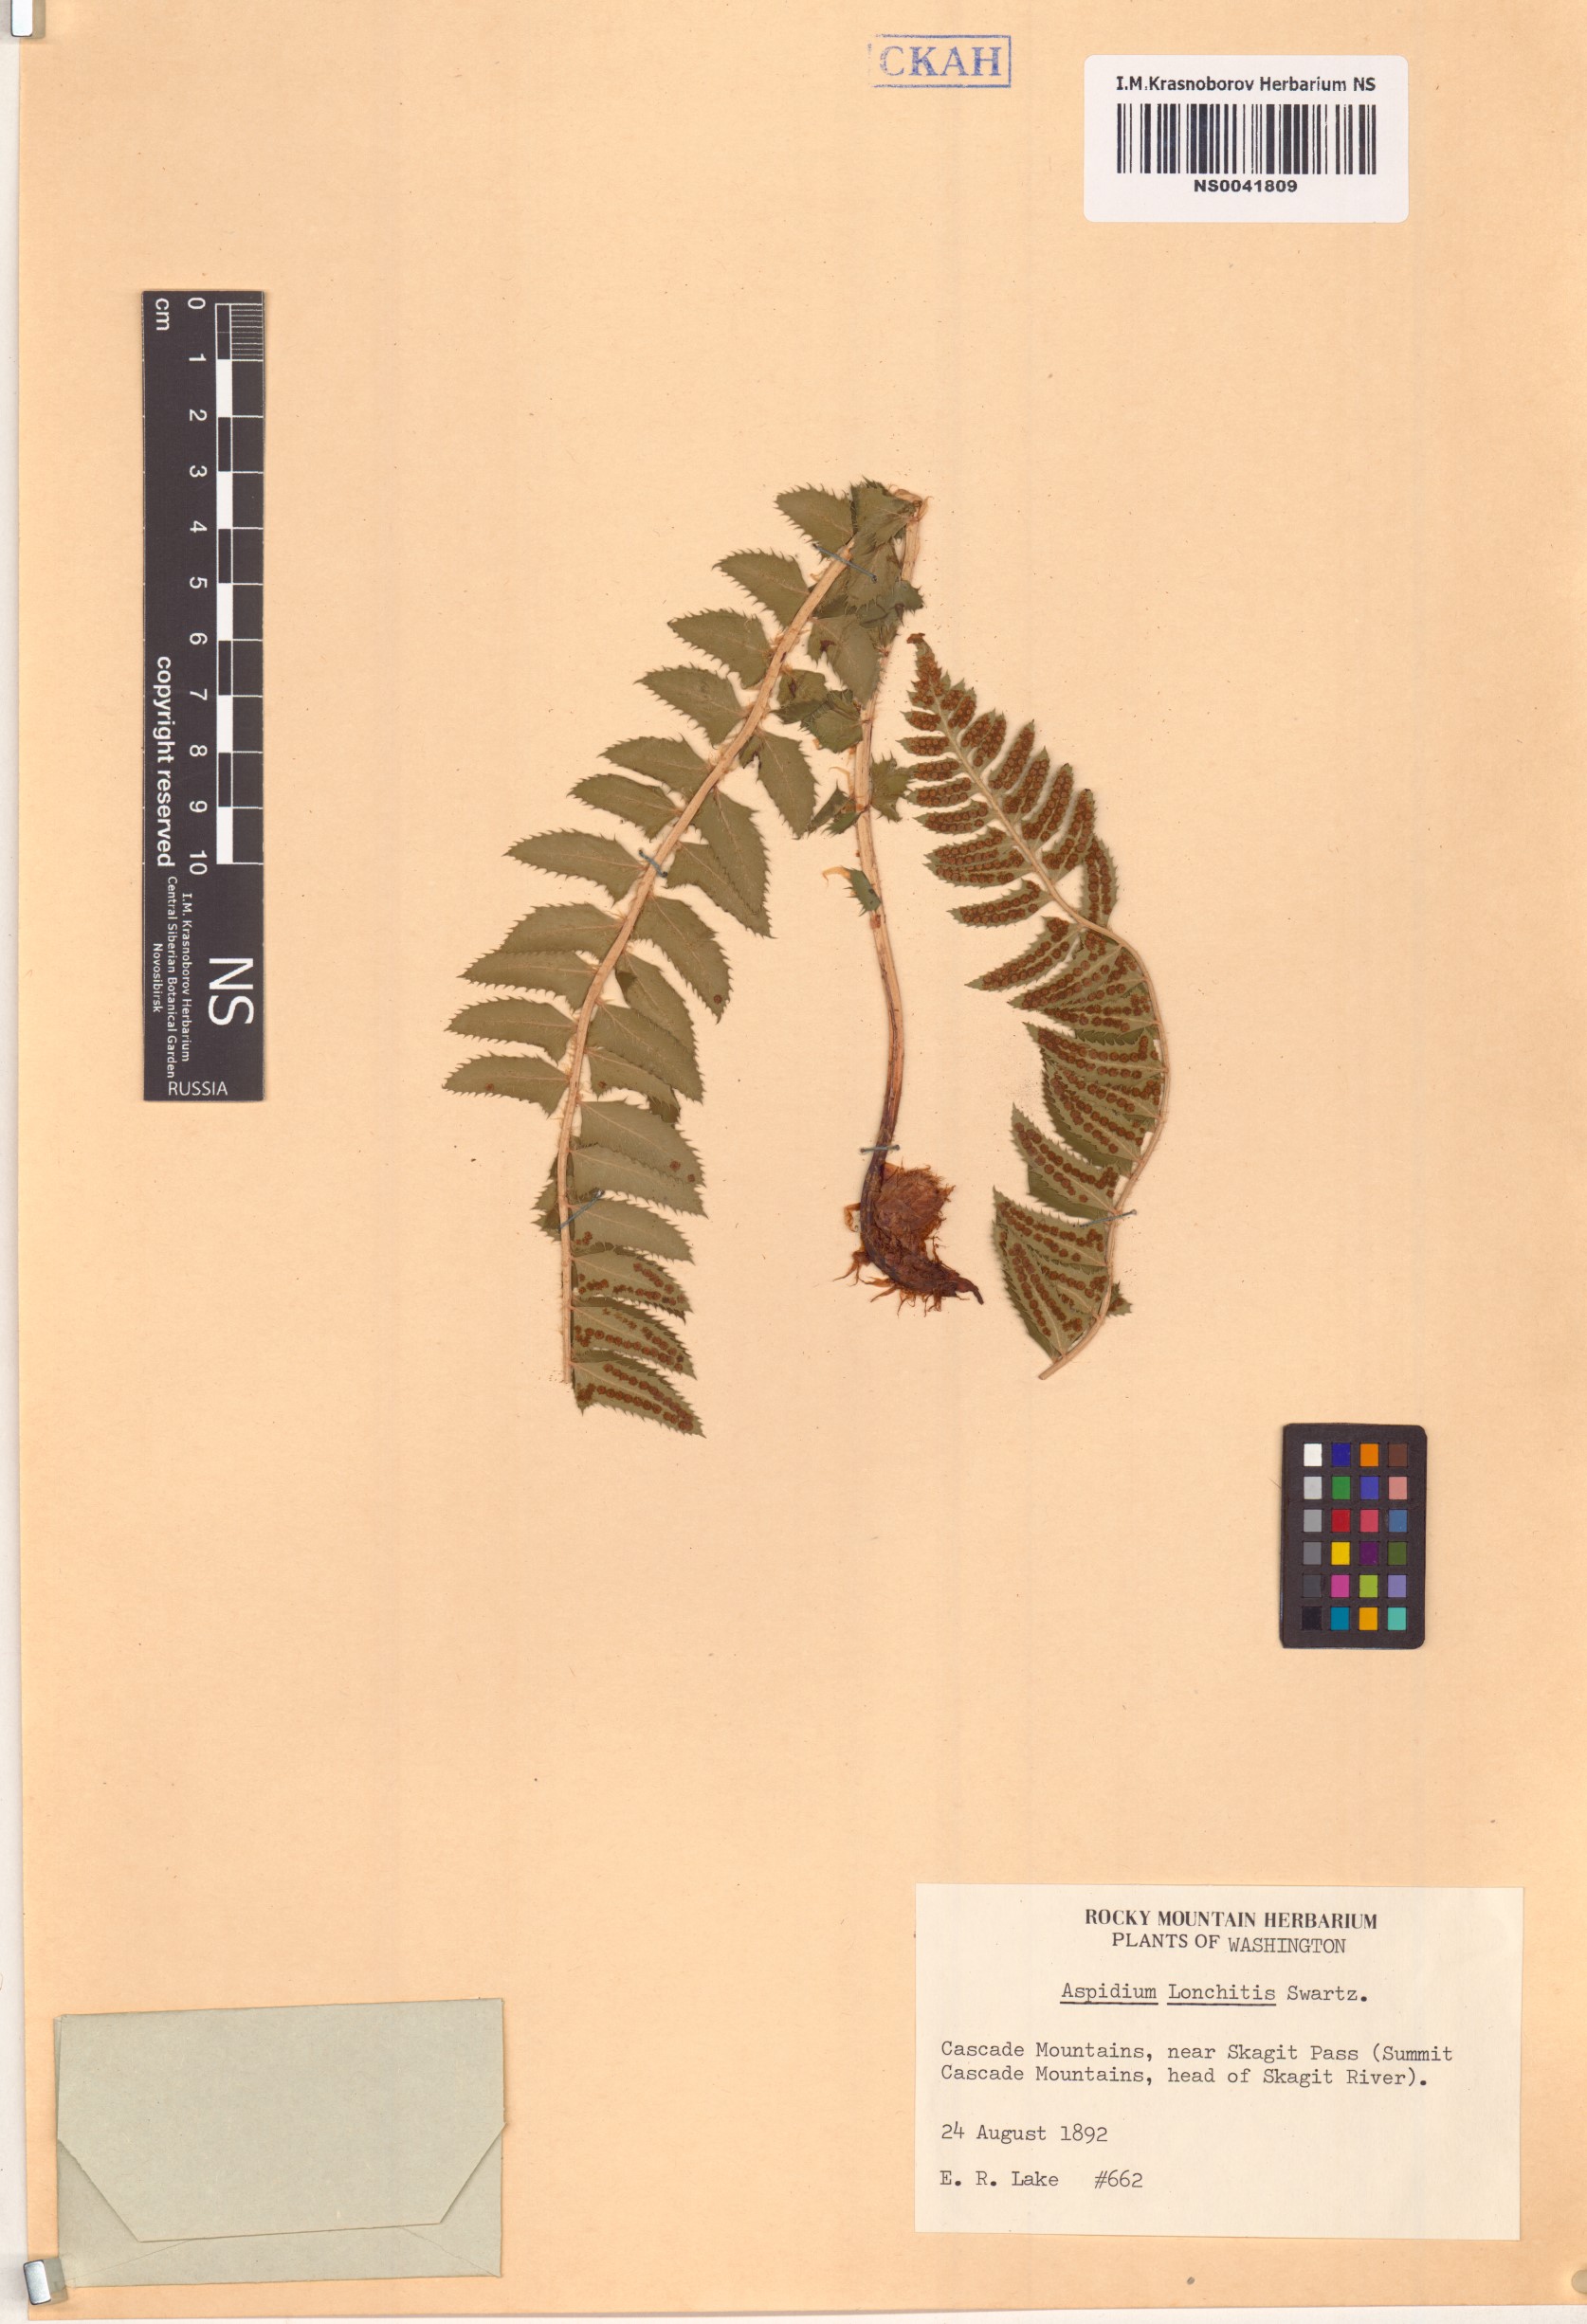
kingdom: Plantae
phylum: Tracheophyta
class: Polypodiopsida
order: Polypodiales
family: Dryopteridaceae
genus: Polystichum
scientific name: Polystichum lonchitis
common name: Holly fern
